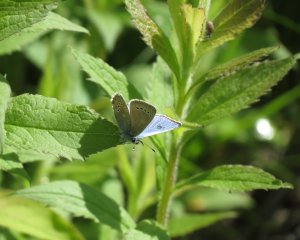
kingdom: Animalia
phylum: Arthropoda
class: Insecta
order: Lepidoptera
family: Lycaenidae
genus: Glaucopsyche
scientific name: Glaucopsyche lygdamus
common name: Silvery Blue
